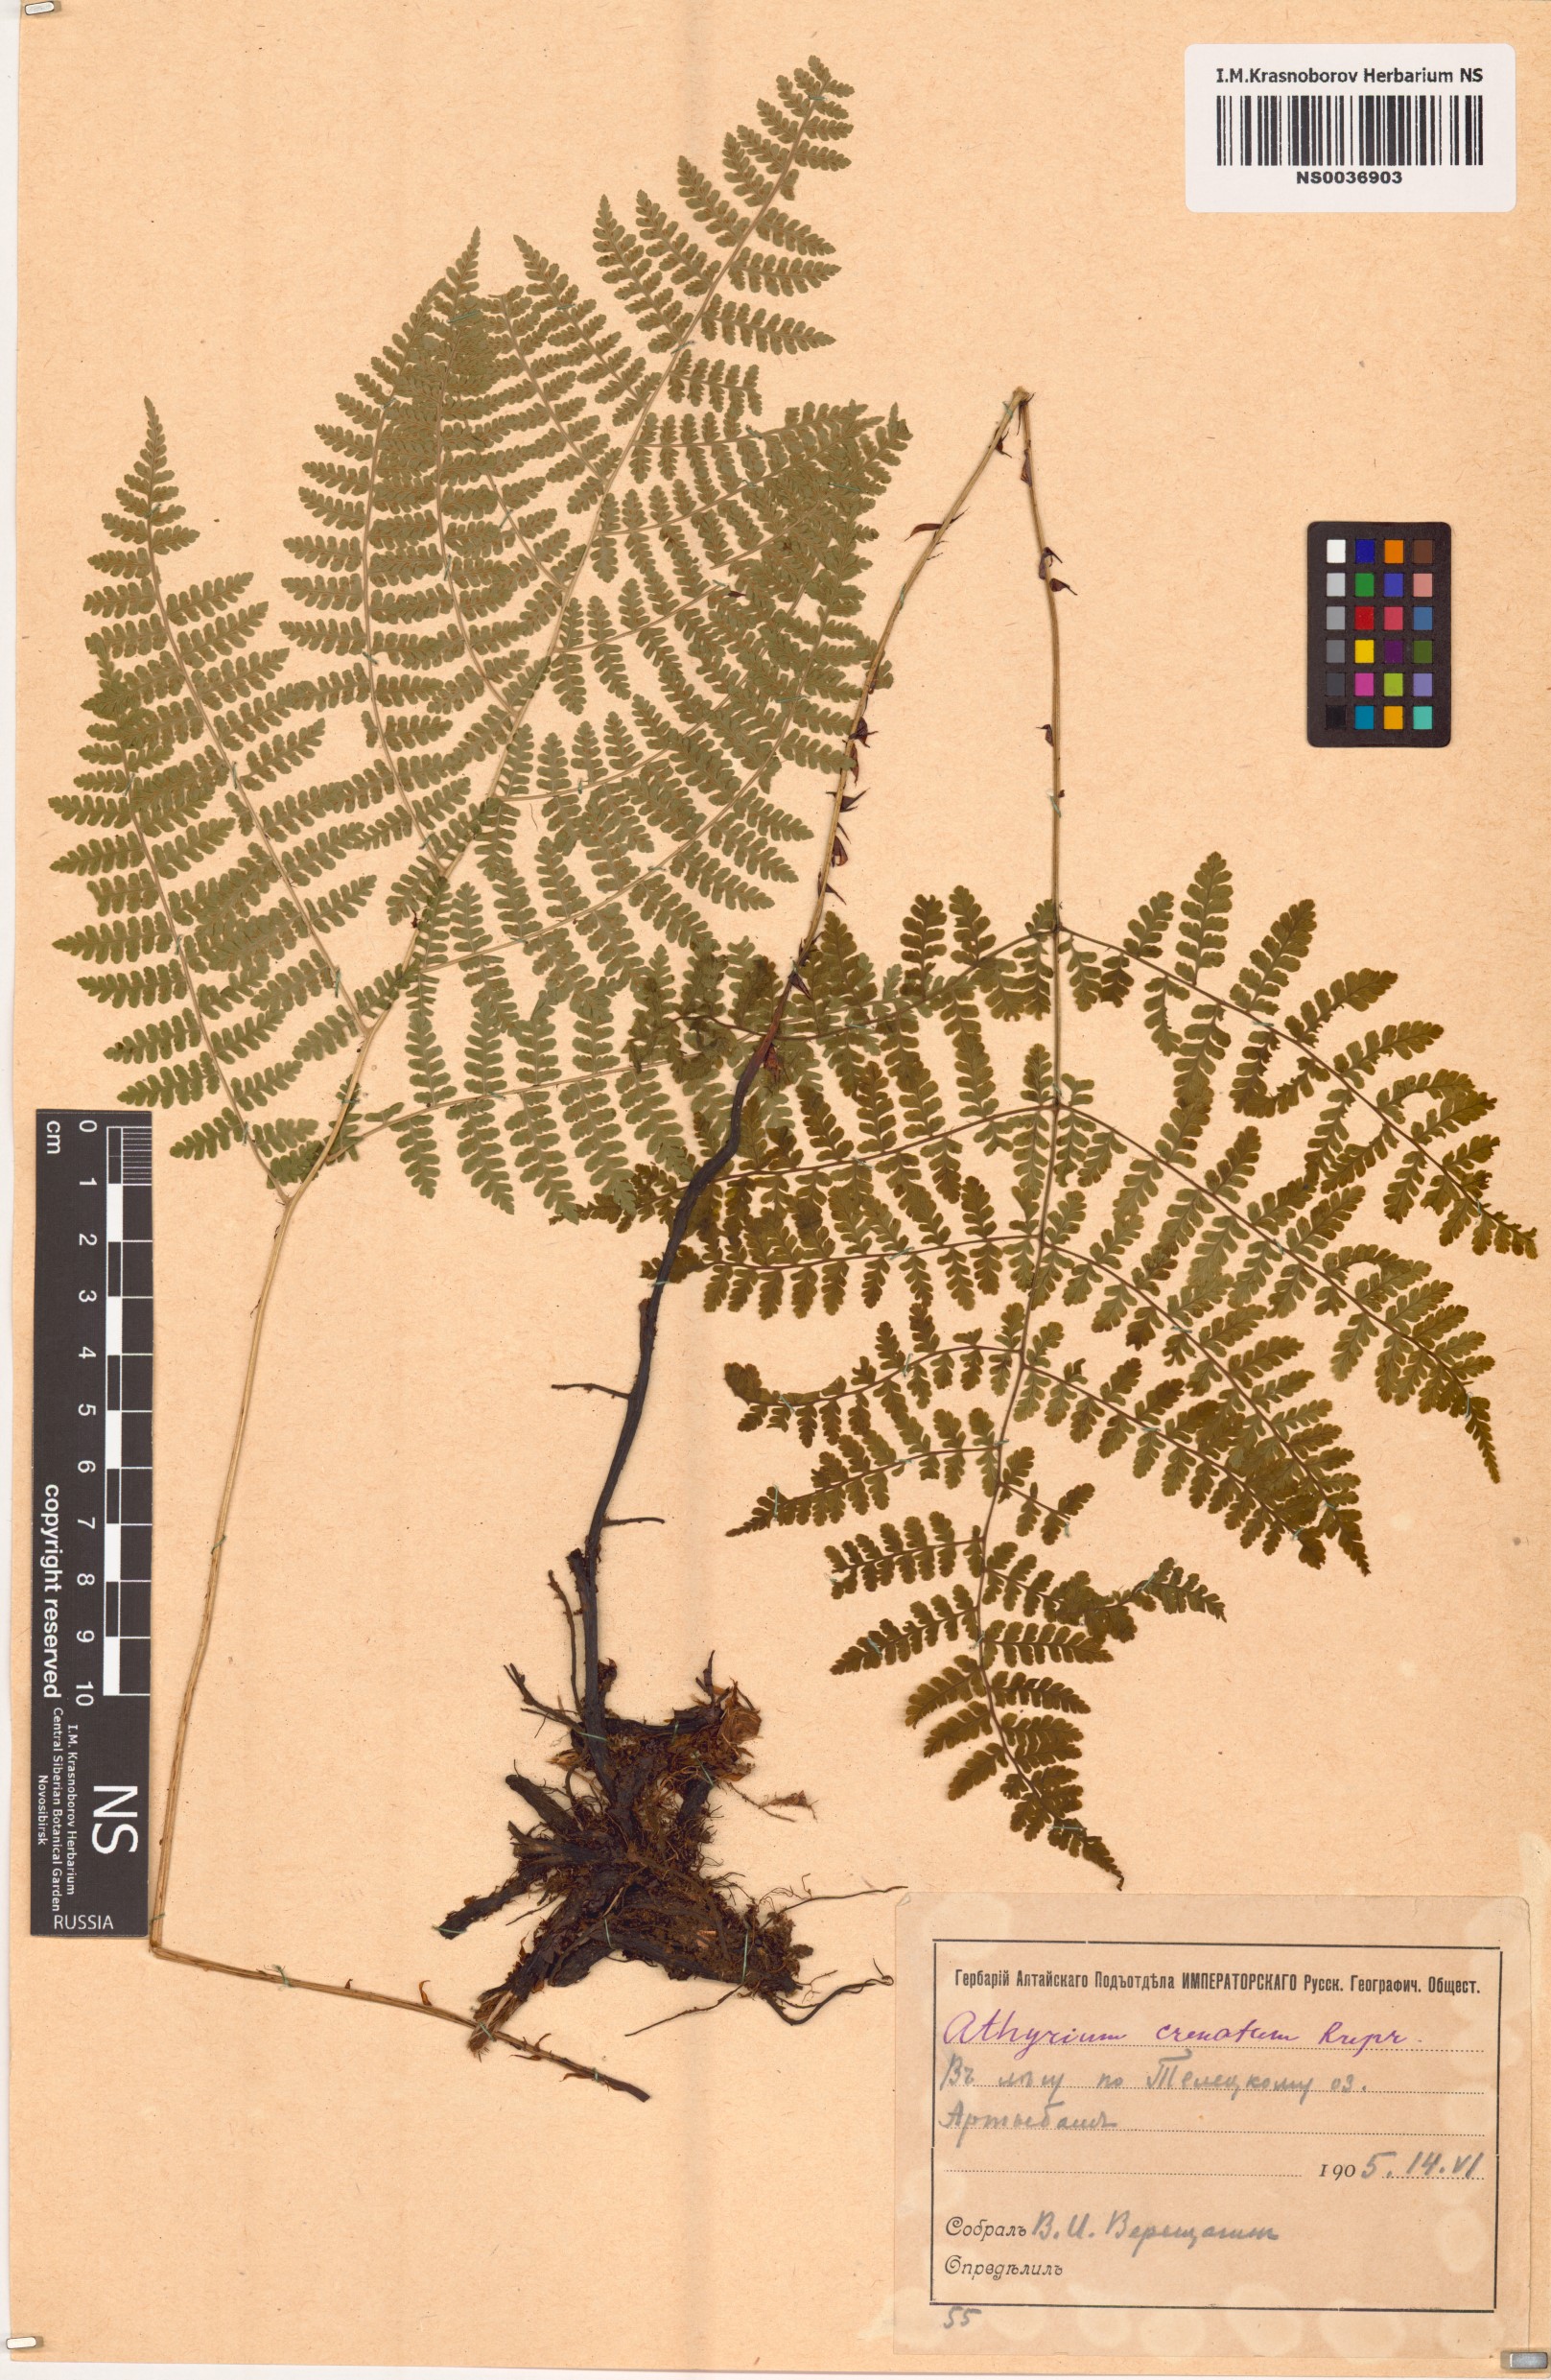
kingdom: Plantae
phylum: Tracheophyta
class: Polypodiopsida
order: Polypodiales
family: Athyriaceae
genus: Diplazium
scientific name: Diplazium sibiricum
